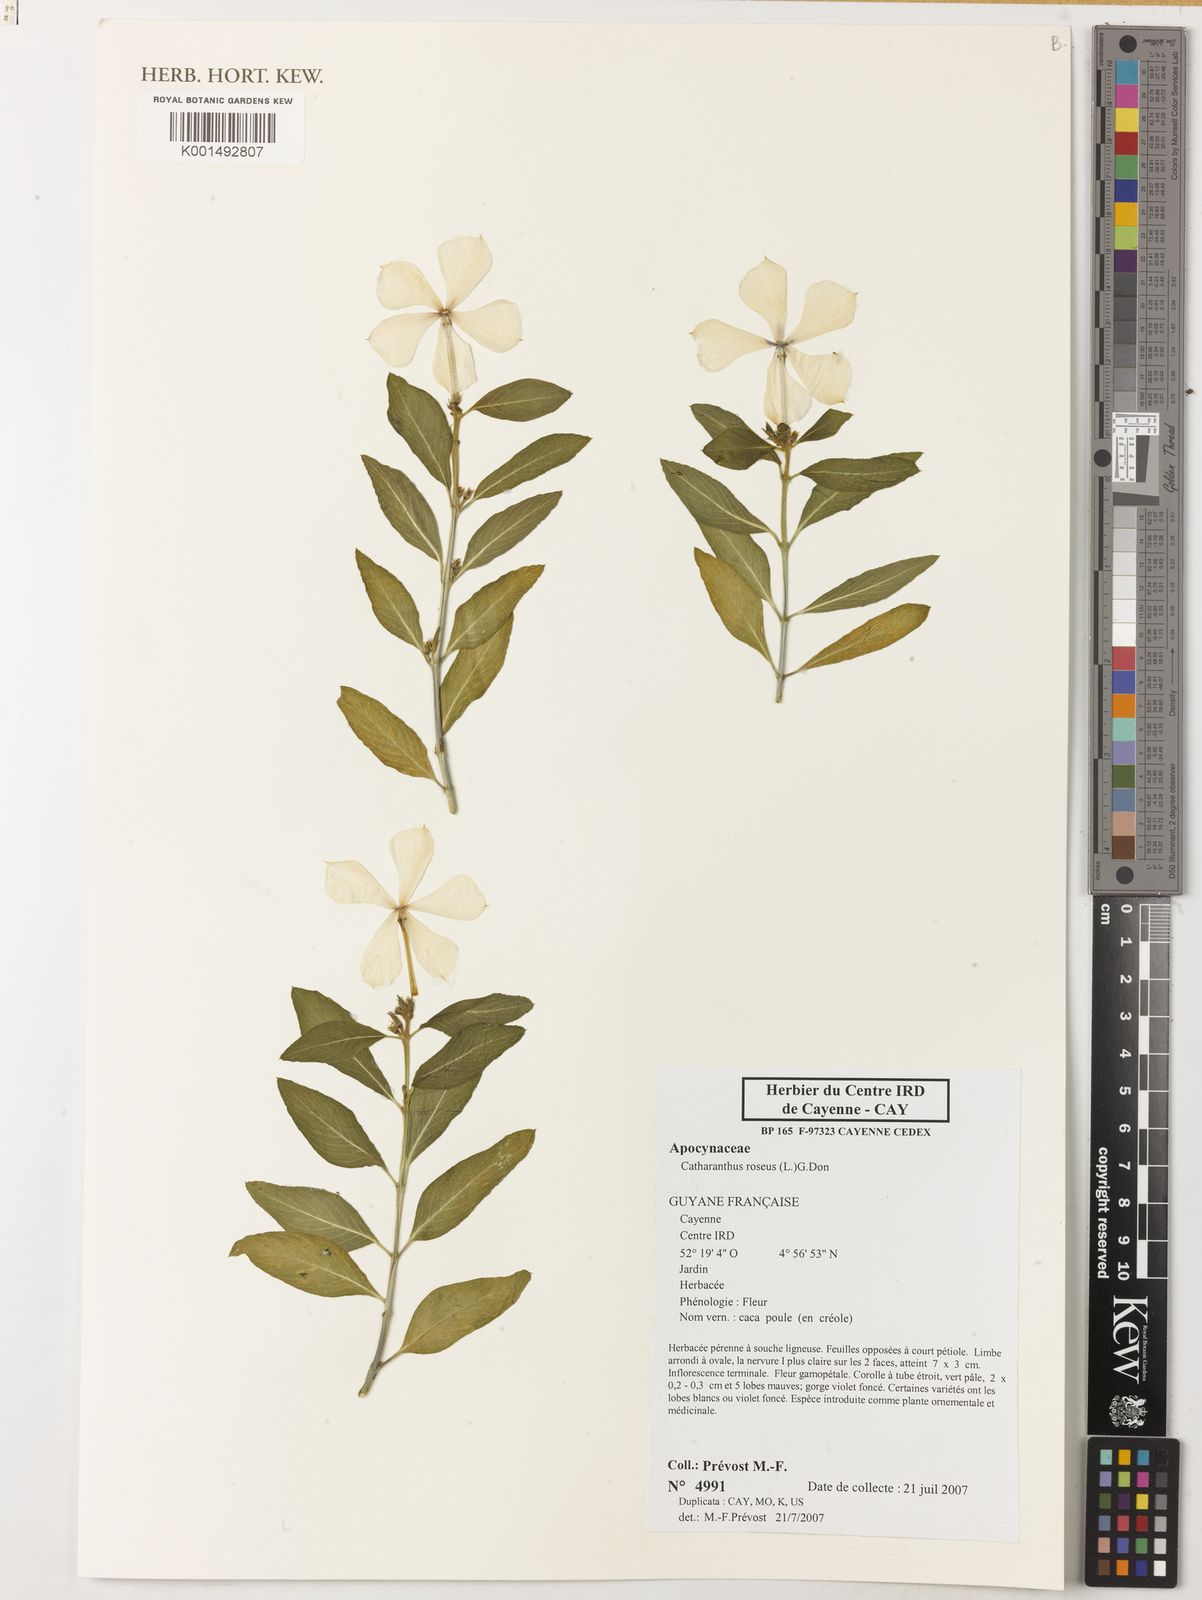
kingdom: Plantae
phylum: Tracheophyta
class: Magnoliopsida
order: Gentianales
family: Apocynaceae
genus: Catharanthus
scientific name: Catharanthus roseus
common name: Madagascar periwinkle
